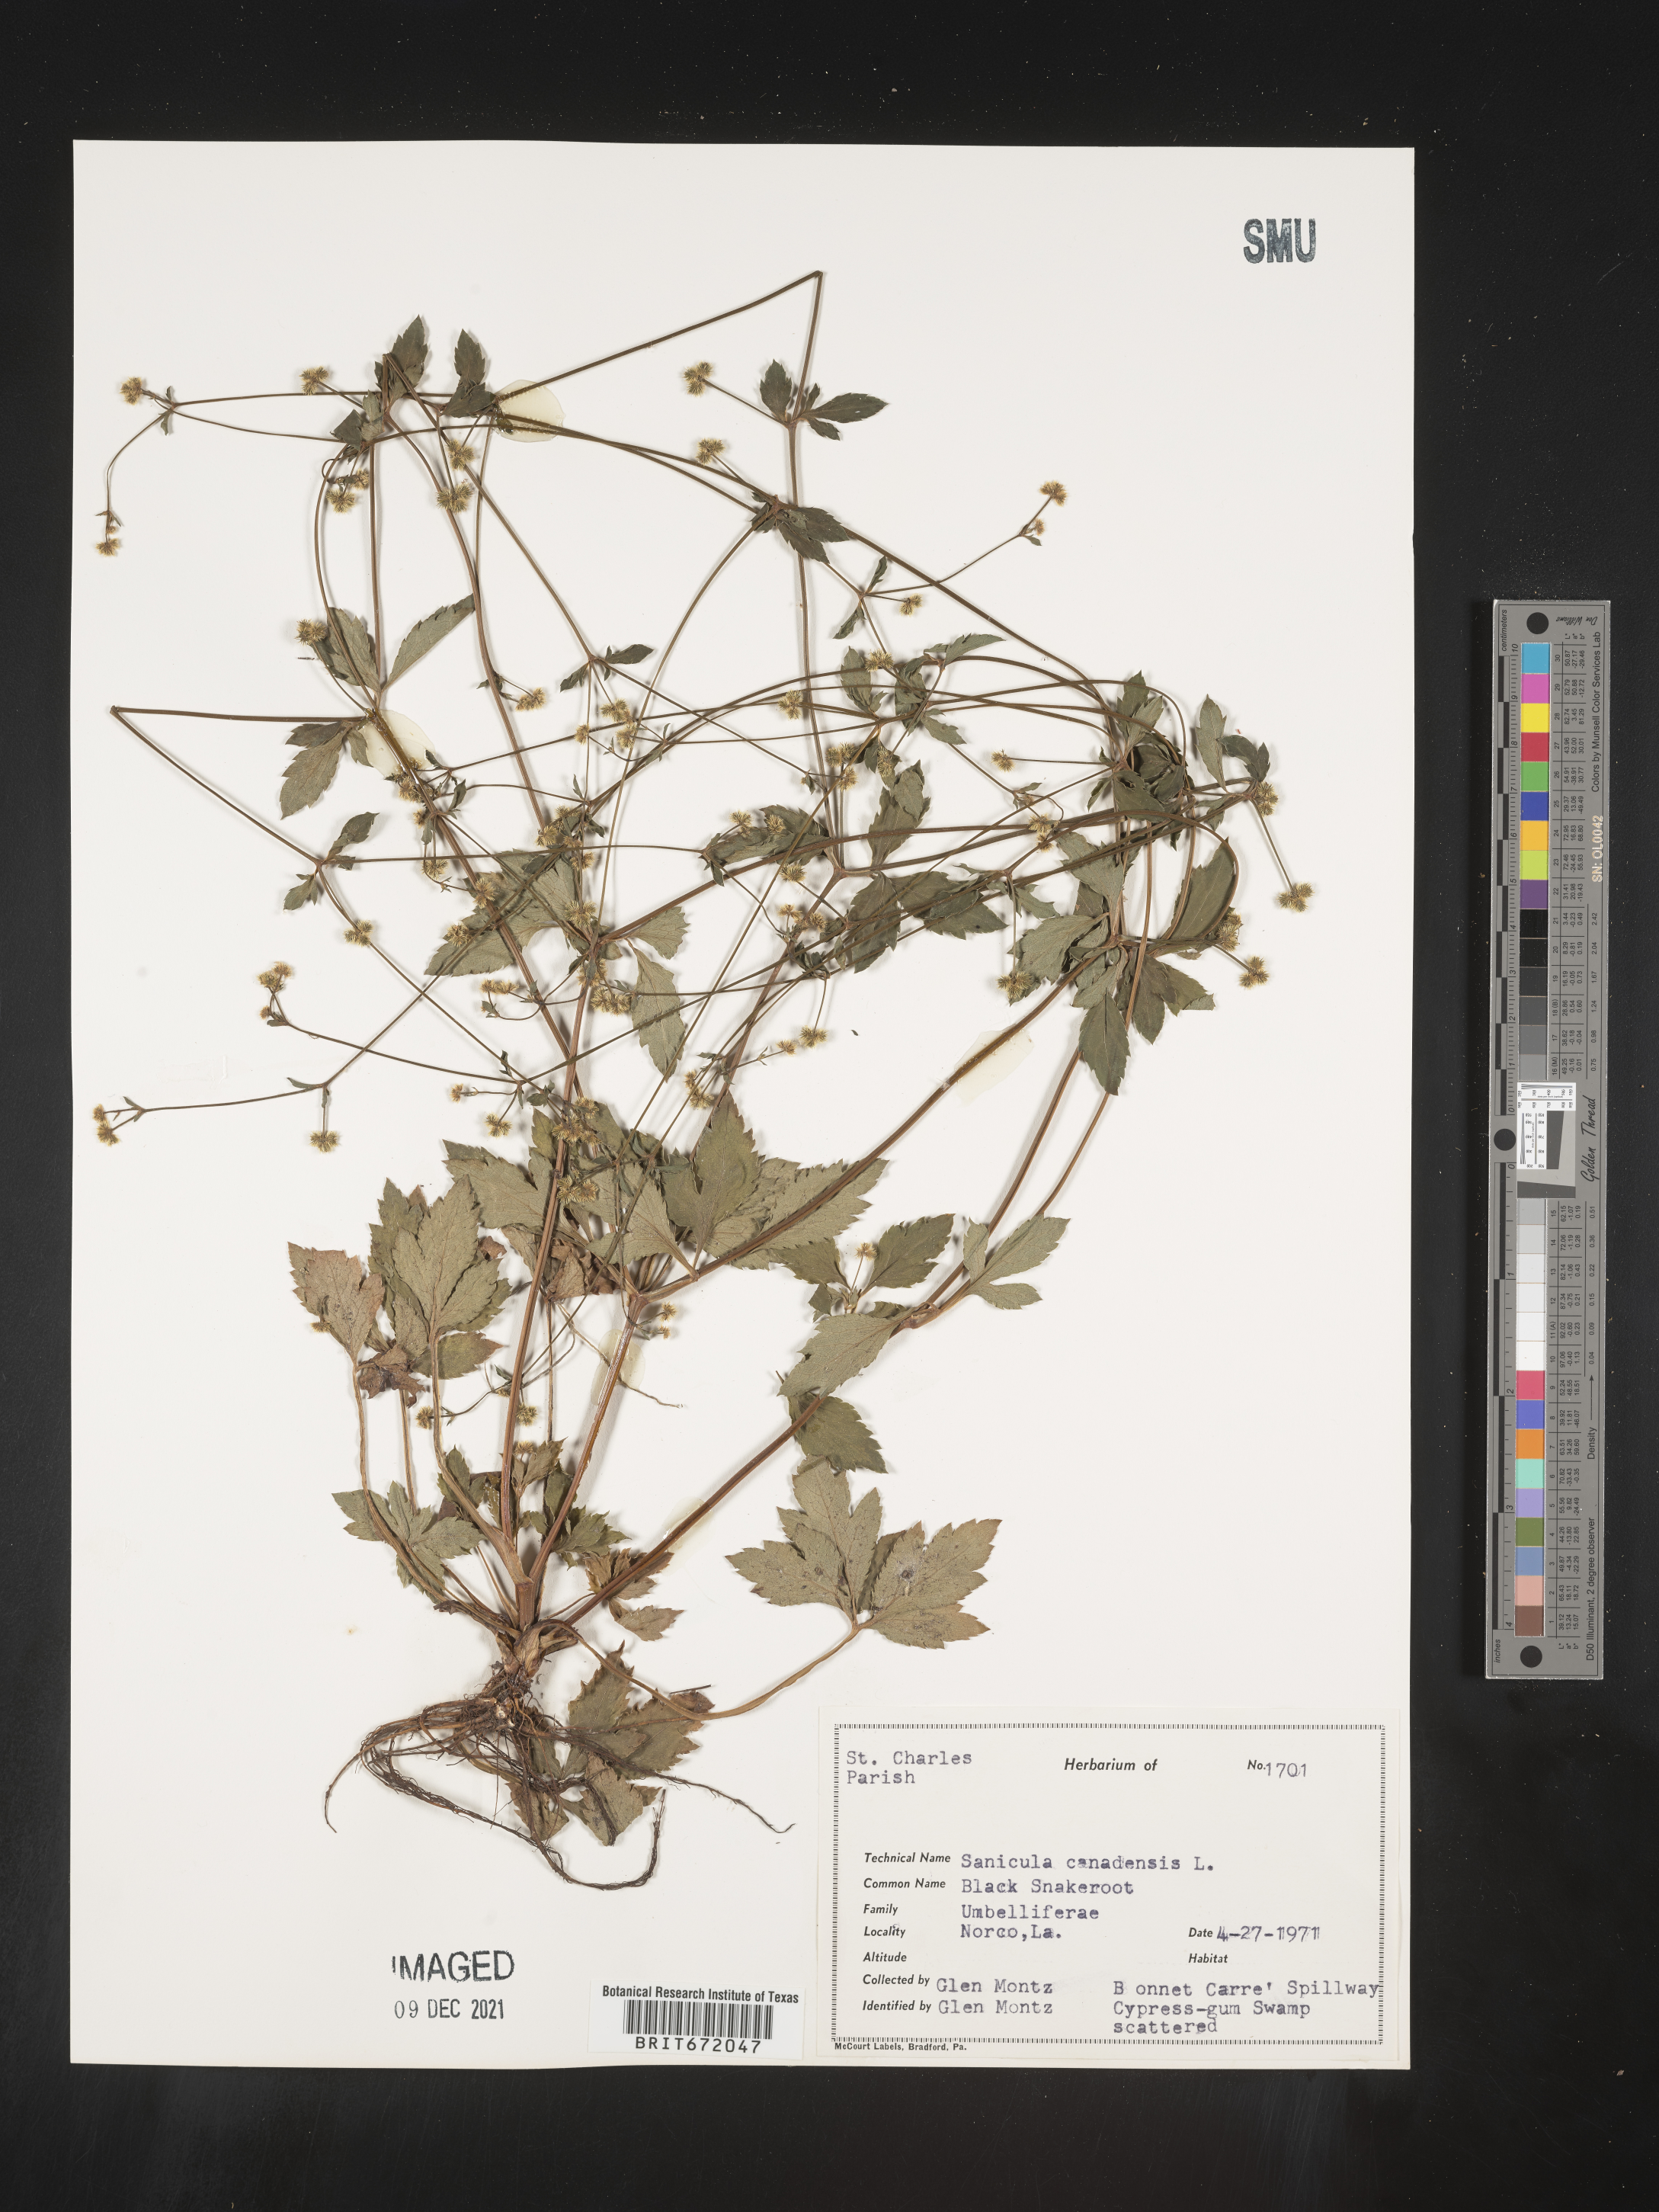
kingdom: Plantae
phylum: Tracheophyta
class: Magnoliopsida
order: Apiales
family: Apiaceae
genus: Sanicula
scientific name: Sanicula canadensis
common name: Canada sanicle
